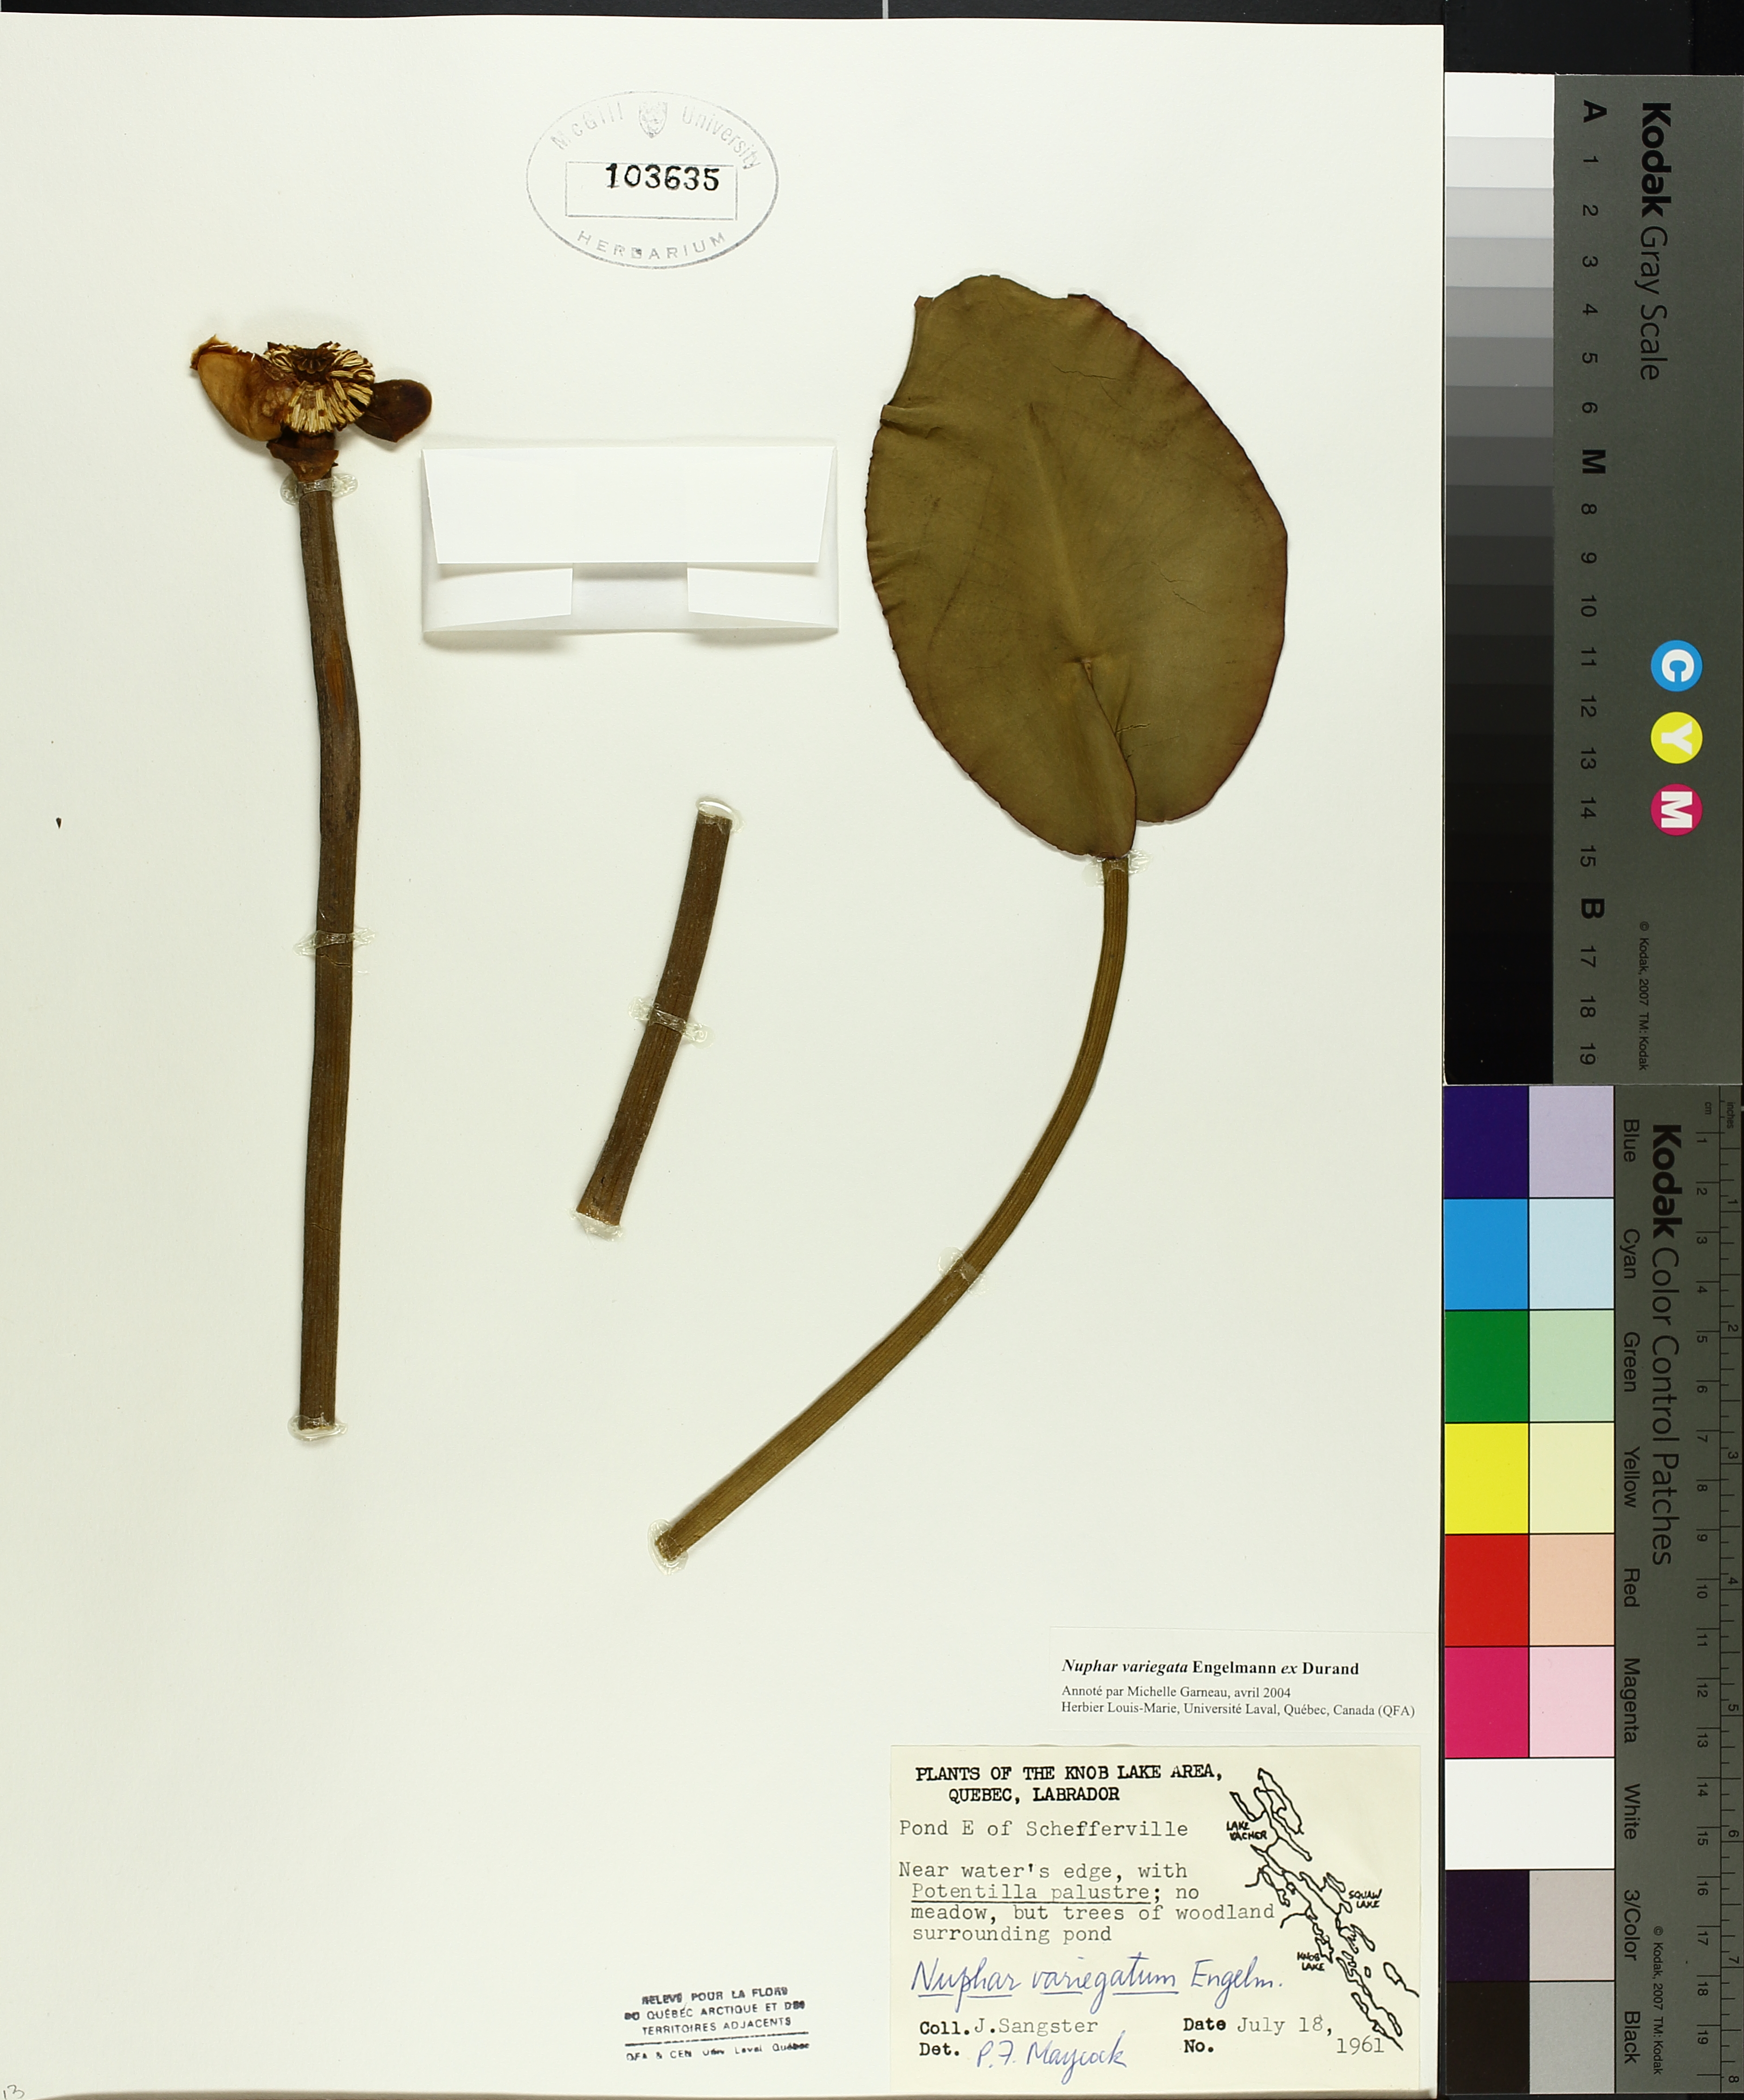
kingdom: Plantae
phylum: Tracheophyta
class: Magnoliopsida
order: Nymphaeales
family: Nymphaeaceae
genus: Nuphar
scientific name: Nuphar variegata
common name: Beaver-root
